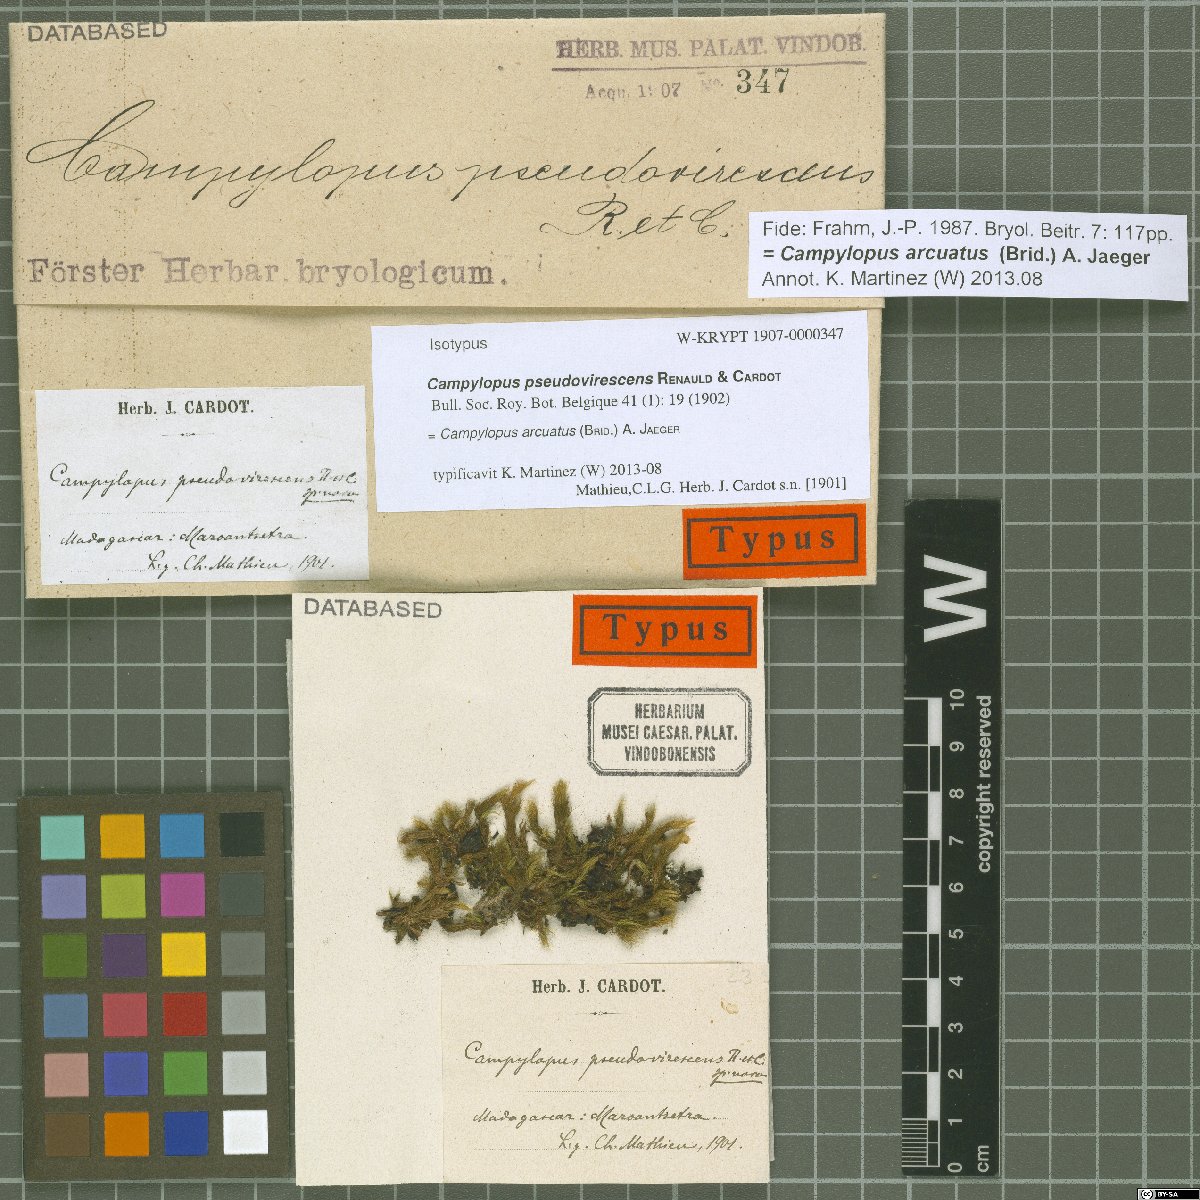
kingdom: Plantae
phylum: Bryophyta
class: Bryopsida
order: Dicranales
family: Leucobryaceae
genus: Campylopus
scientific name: Campylopus arcuatus
